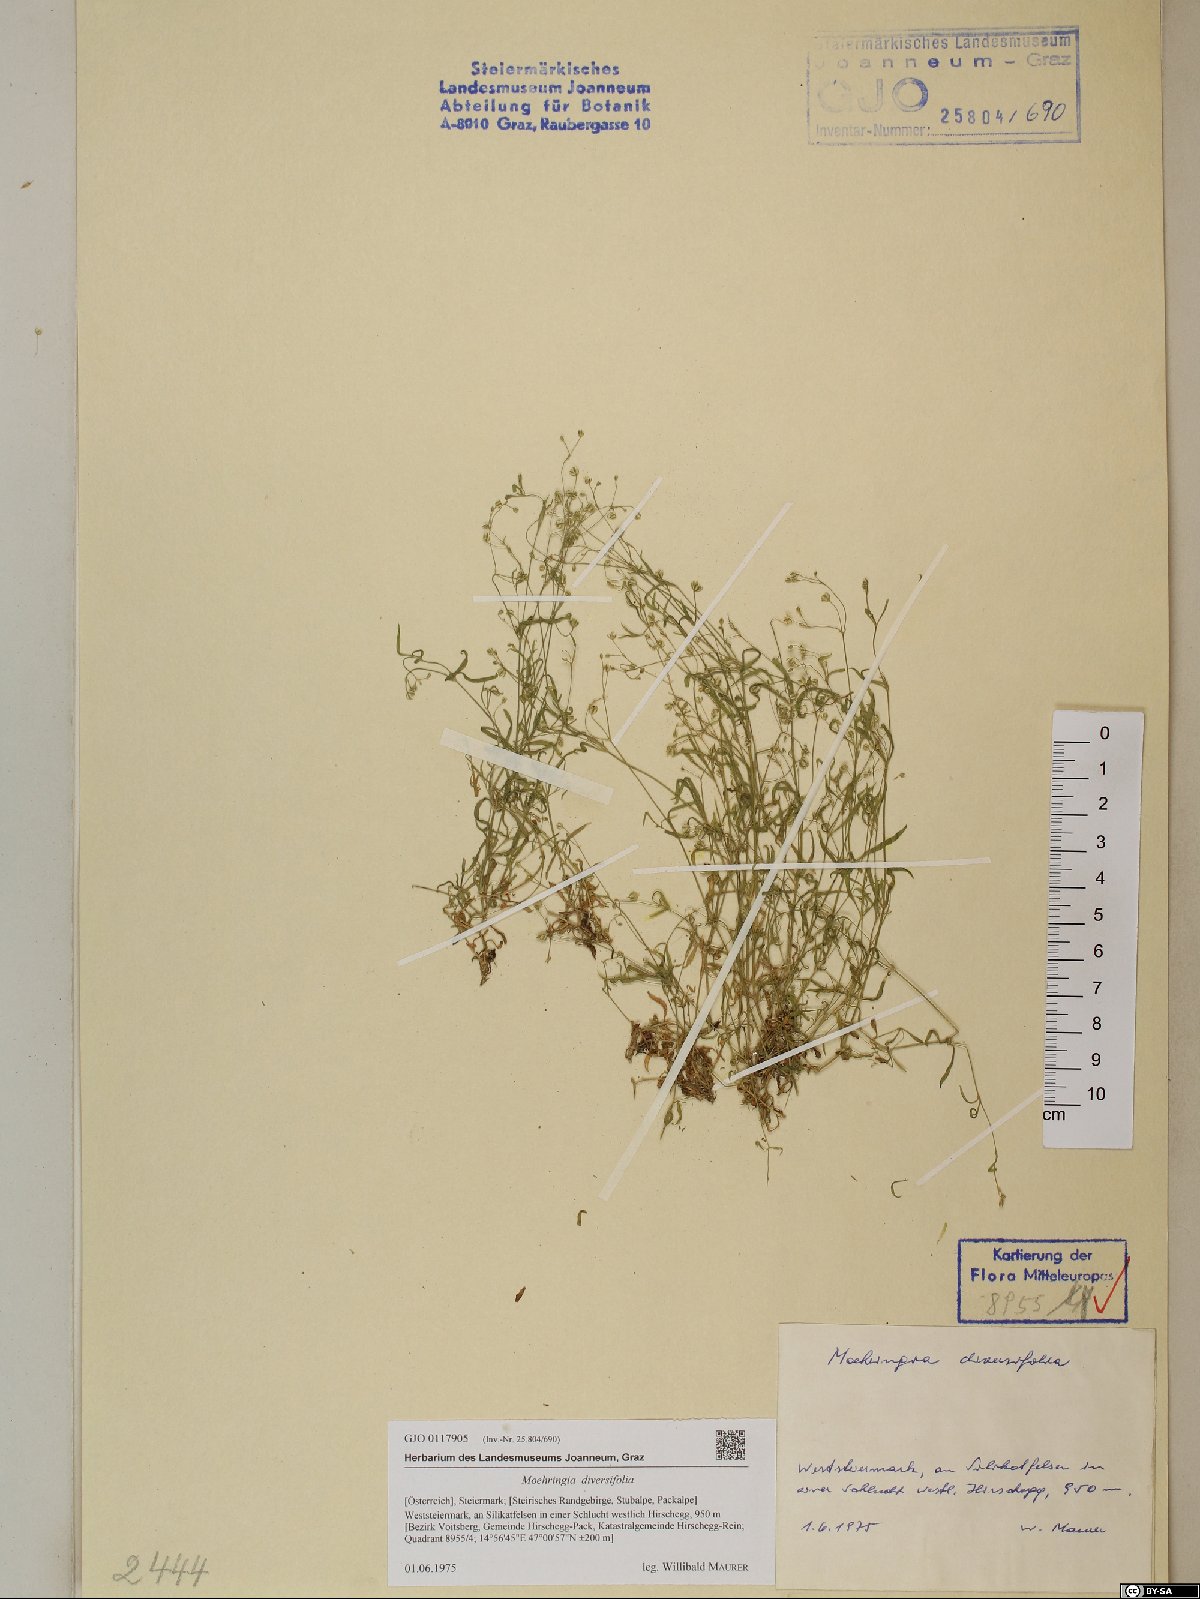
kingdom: Plantae
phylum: Tracheophyta
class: Magnoliopsida
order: Caryophyllales
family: Caryophyllaceae
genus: Moehringia
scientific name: Moehringia diversifolia
